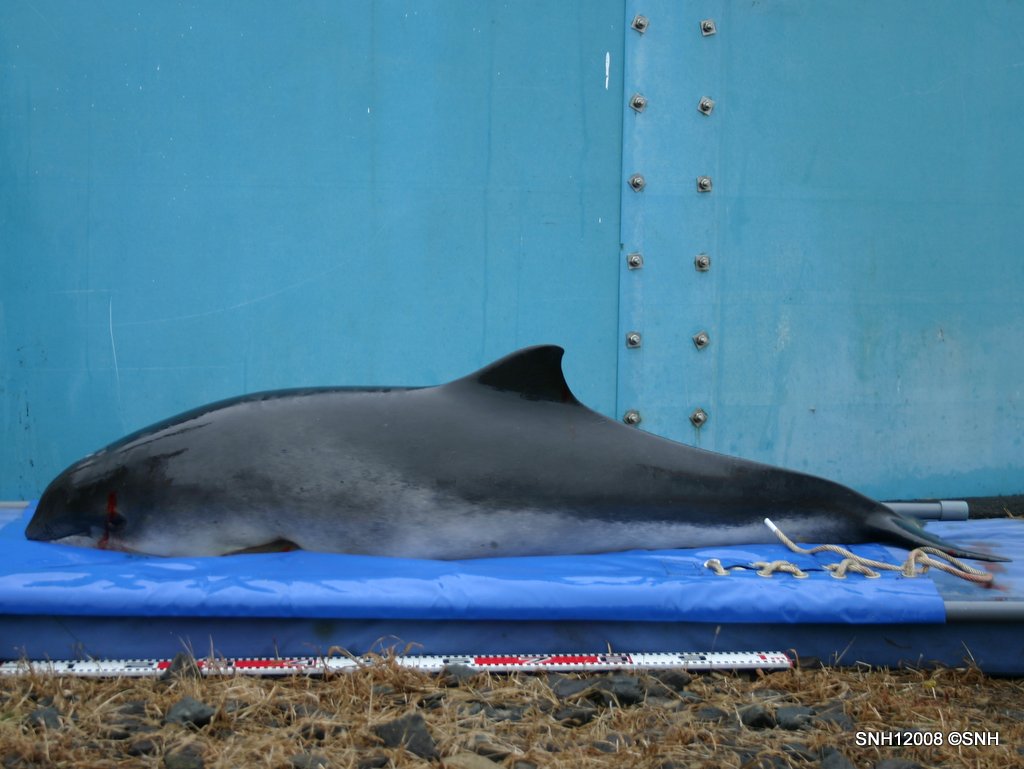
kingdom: Animalia
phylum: Chordata
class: Mammalia
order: Cetacea
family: Phocoenidae
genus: Phocoena
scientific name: Phocoena phocoena
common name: Harbour porpoise
